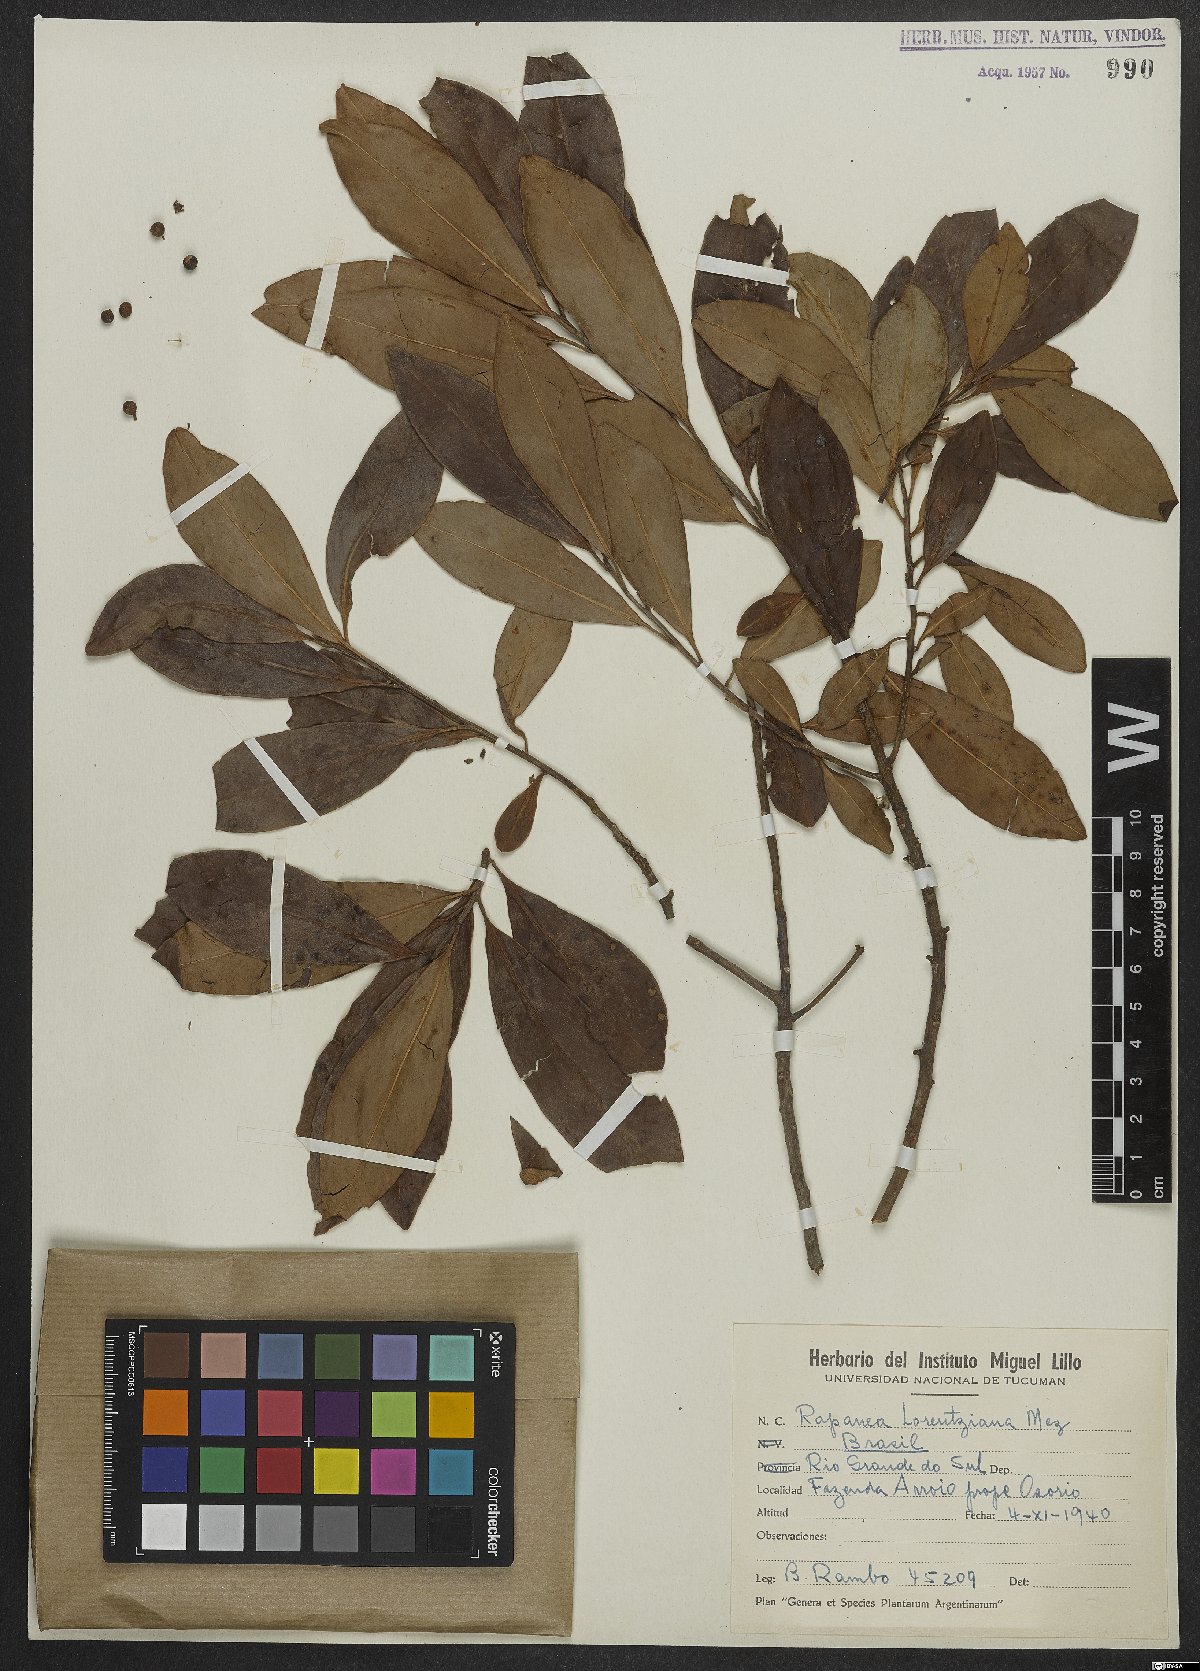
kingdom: Plantae
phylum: Tracheophyta
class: Magnoliopsida
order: Ericales
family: Primulaceae
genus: Myrsine
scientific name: Myrsine lorentziana
